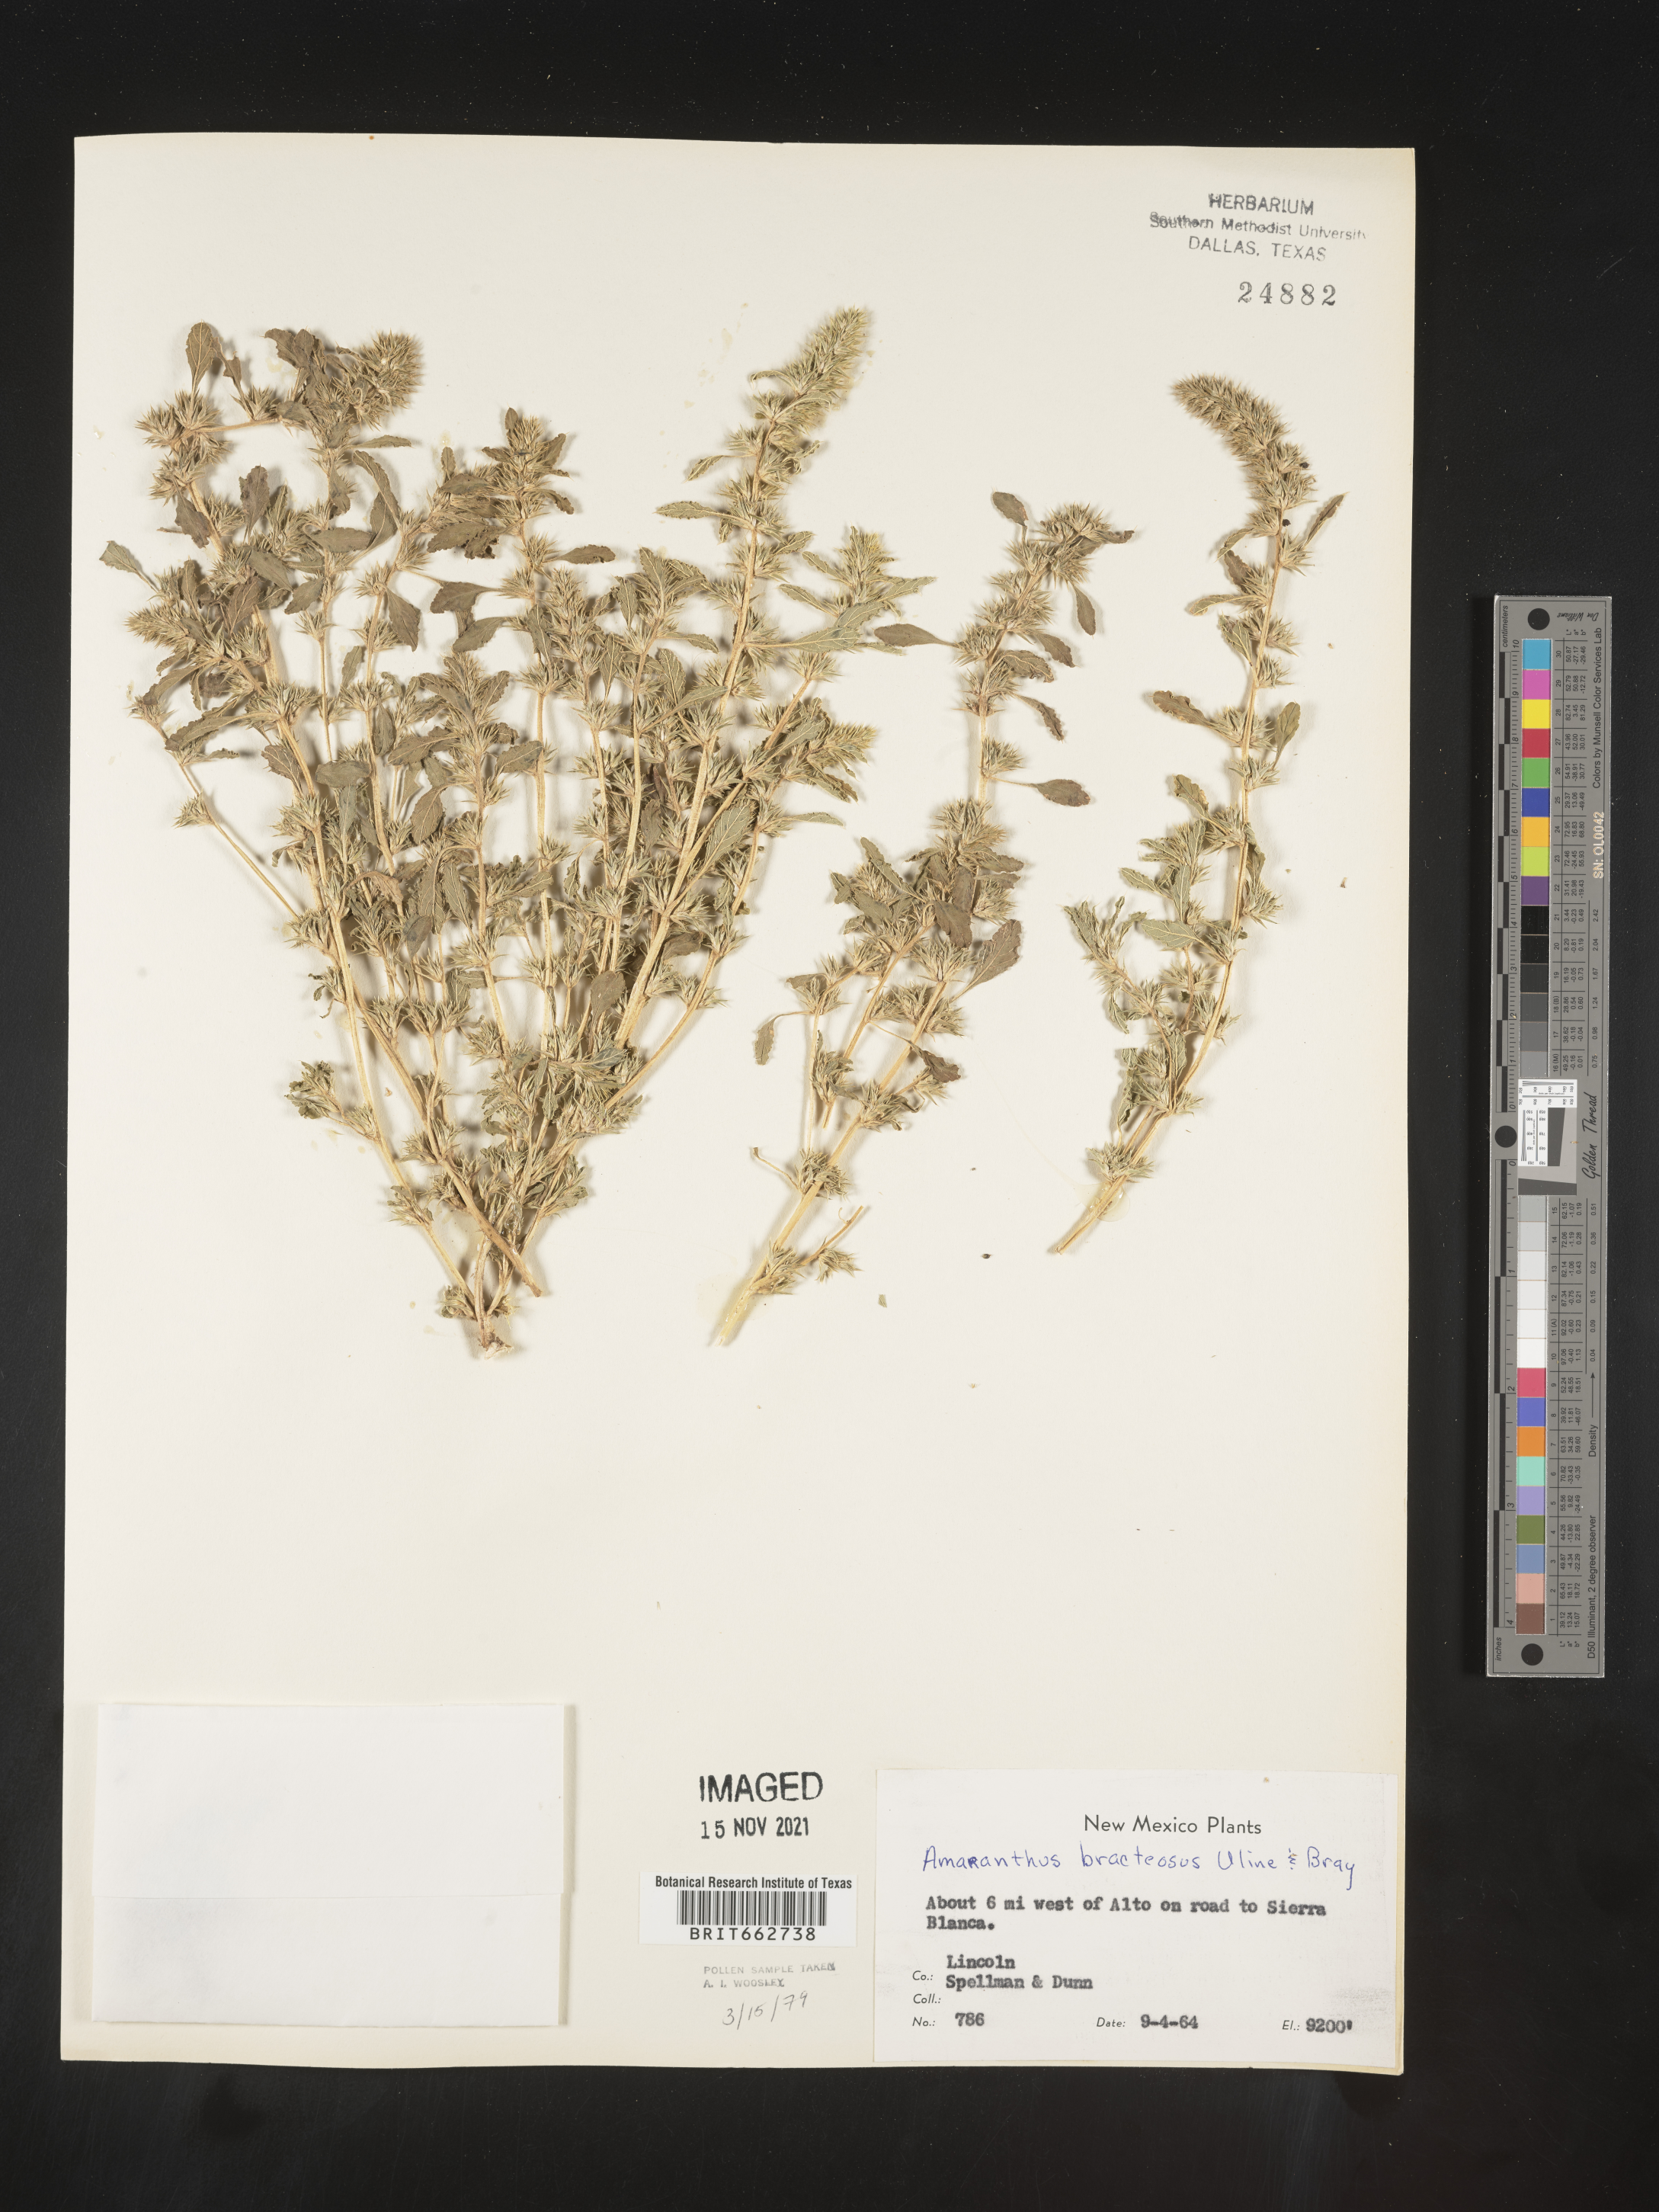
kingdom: Plantae
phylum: Tracheophyta
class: Magnoliopsida
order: Caryophyllales
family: Amaranthaceae
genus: Amaranthus
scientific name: Amaranthus powellii
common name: Powell's amaranth
